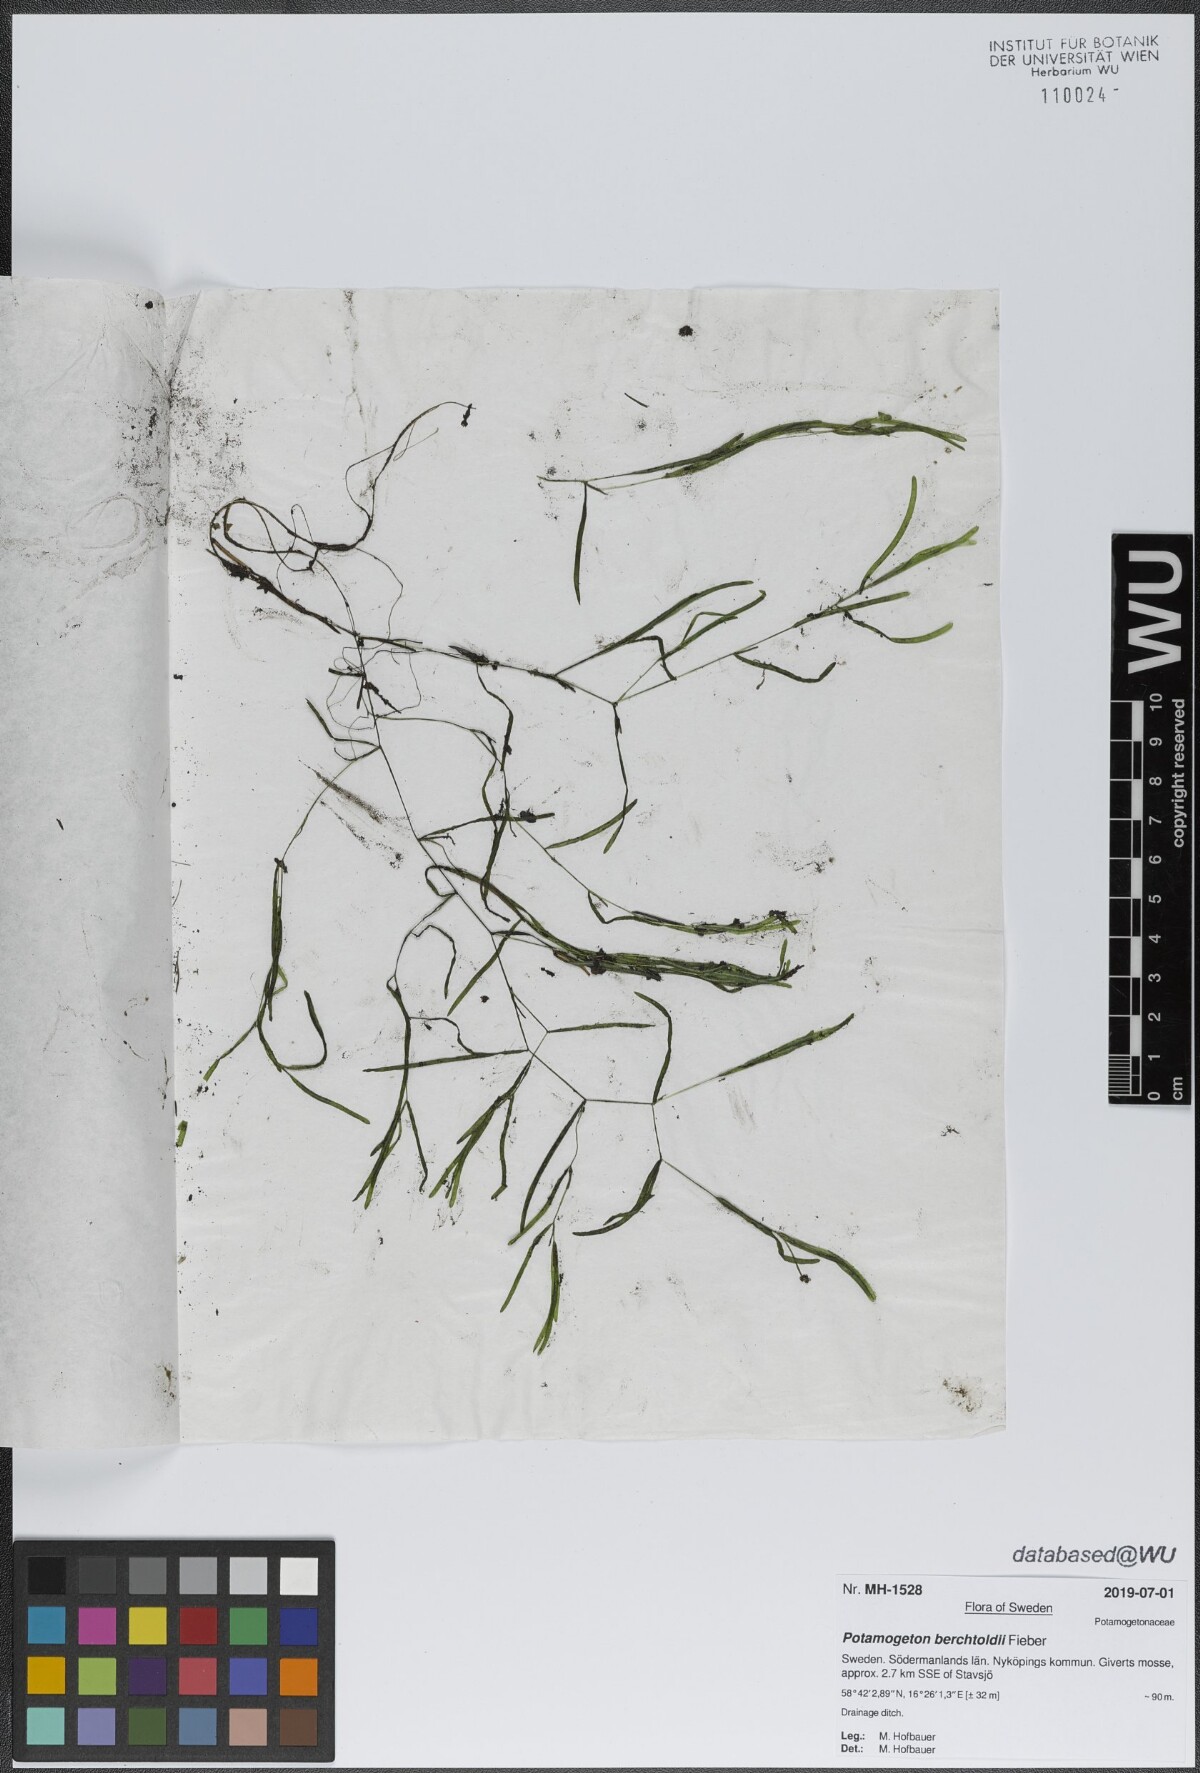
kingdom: Plantae
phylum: Tracheophyta
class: Liliopsida
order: Alismatales
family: Potamogetonaceae
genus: Potamogeton
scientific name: Potamogeton berchtoldii
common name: Small pondweed
